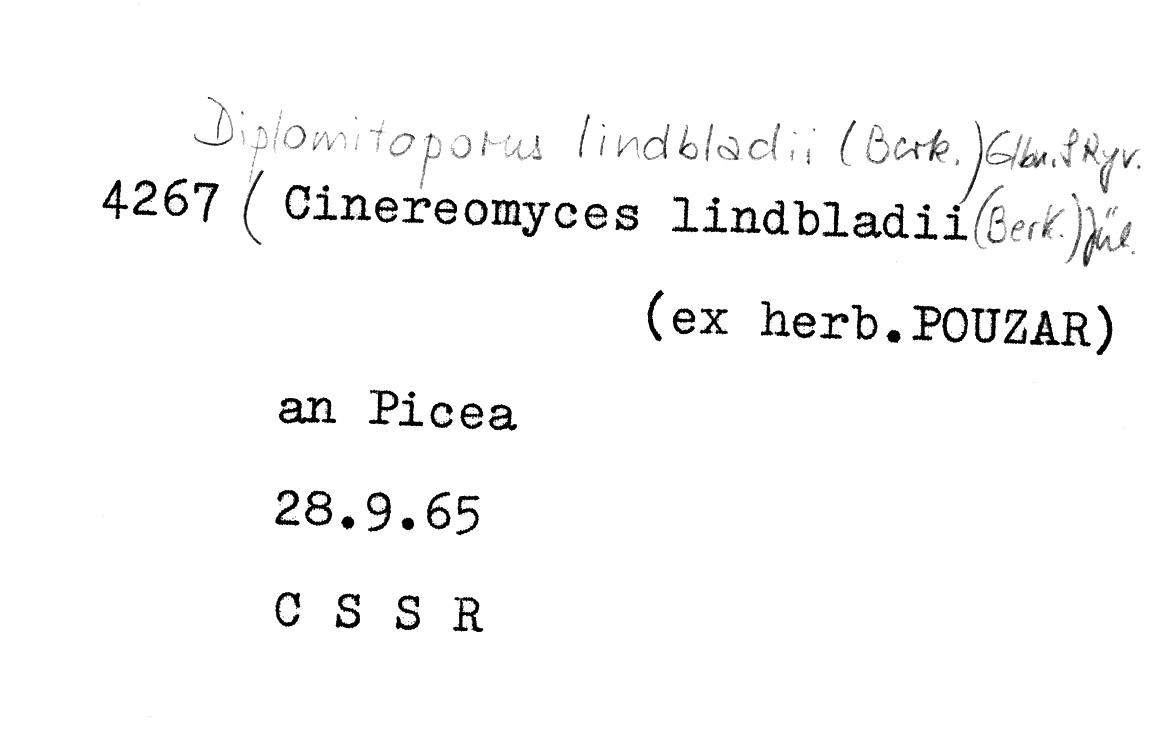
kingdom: Fungi
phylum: Basidiomycota
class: Agaricomycetes
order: Polyporales
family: Gelatoporiaceae
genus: Cinereomyces
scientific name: Cinereomyces lindbladii
